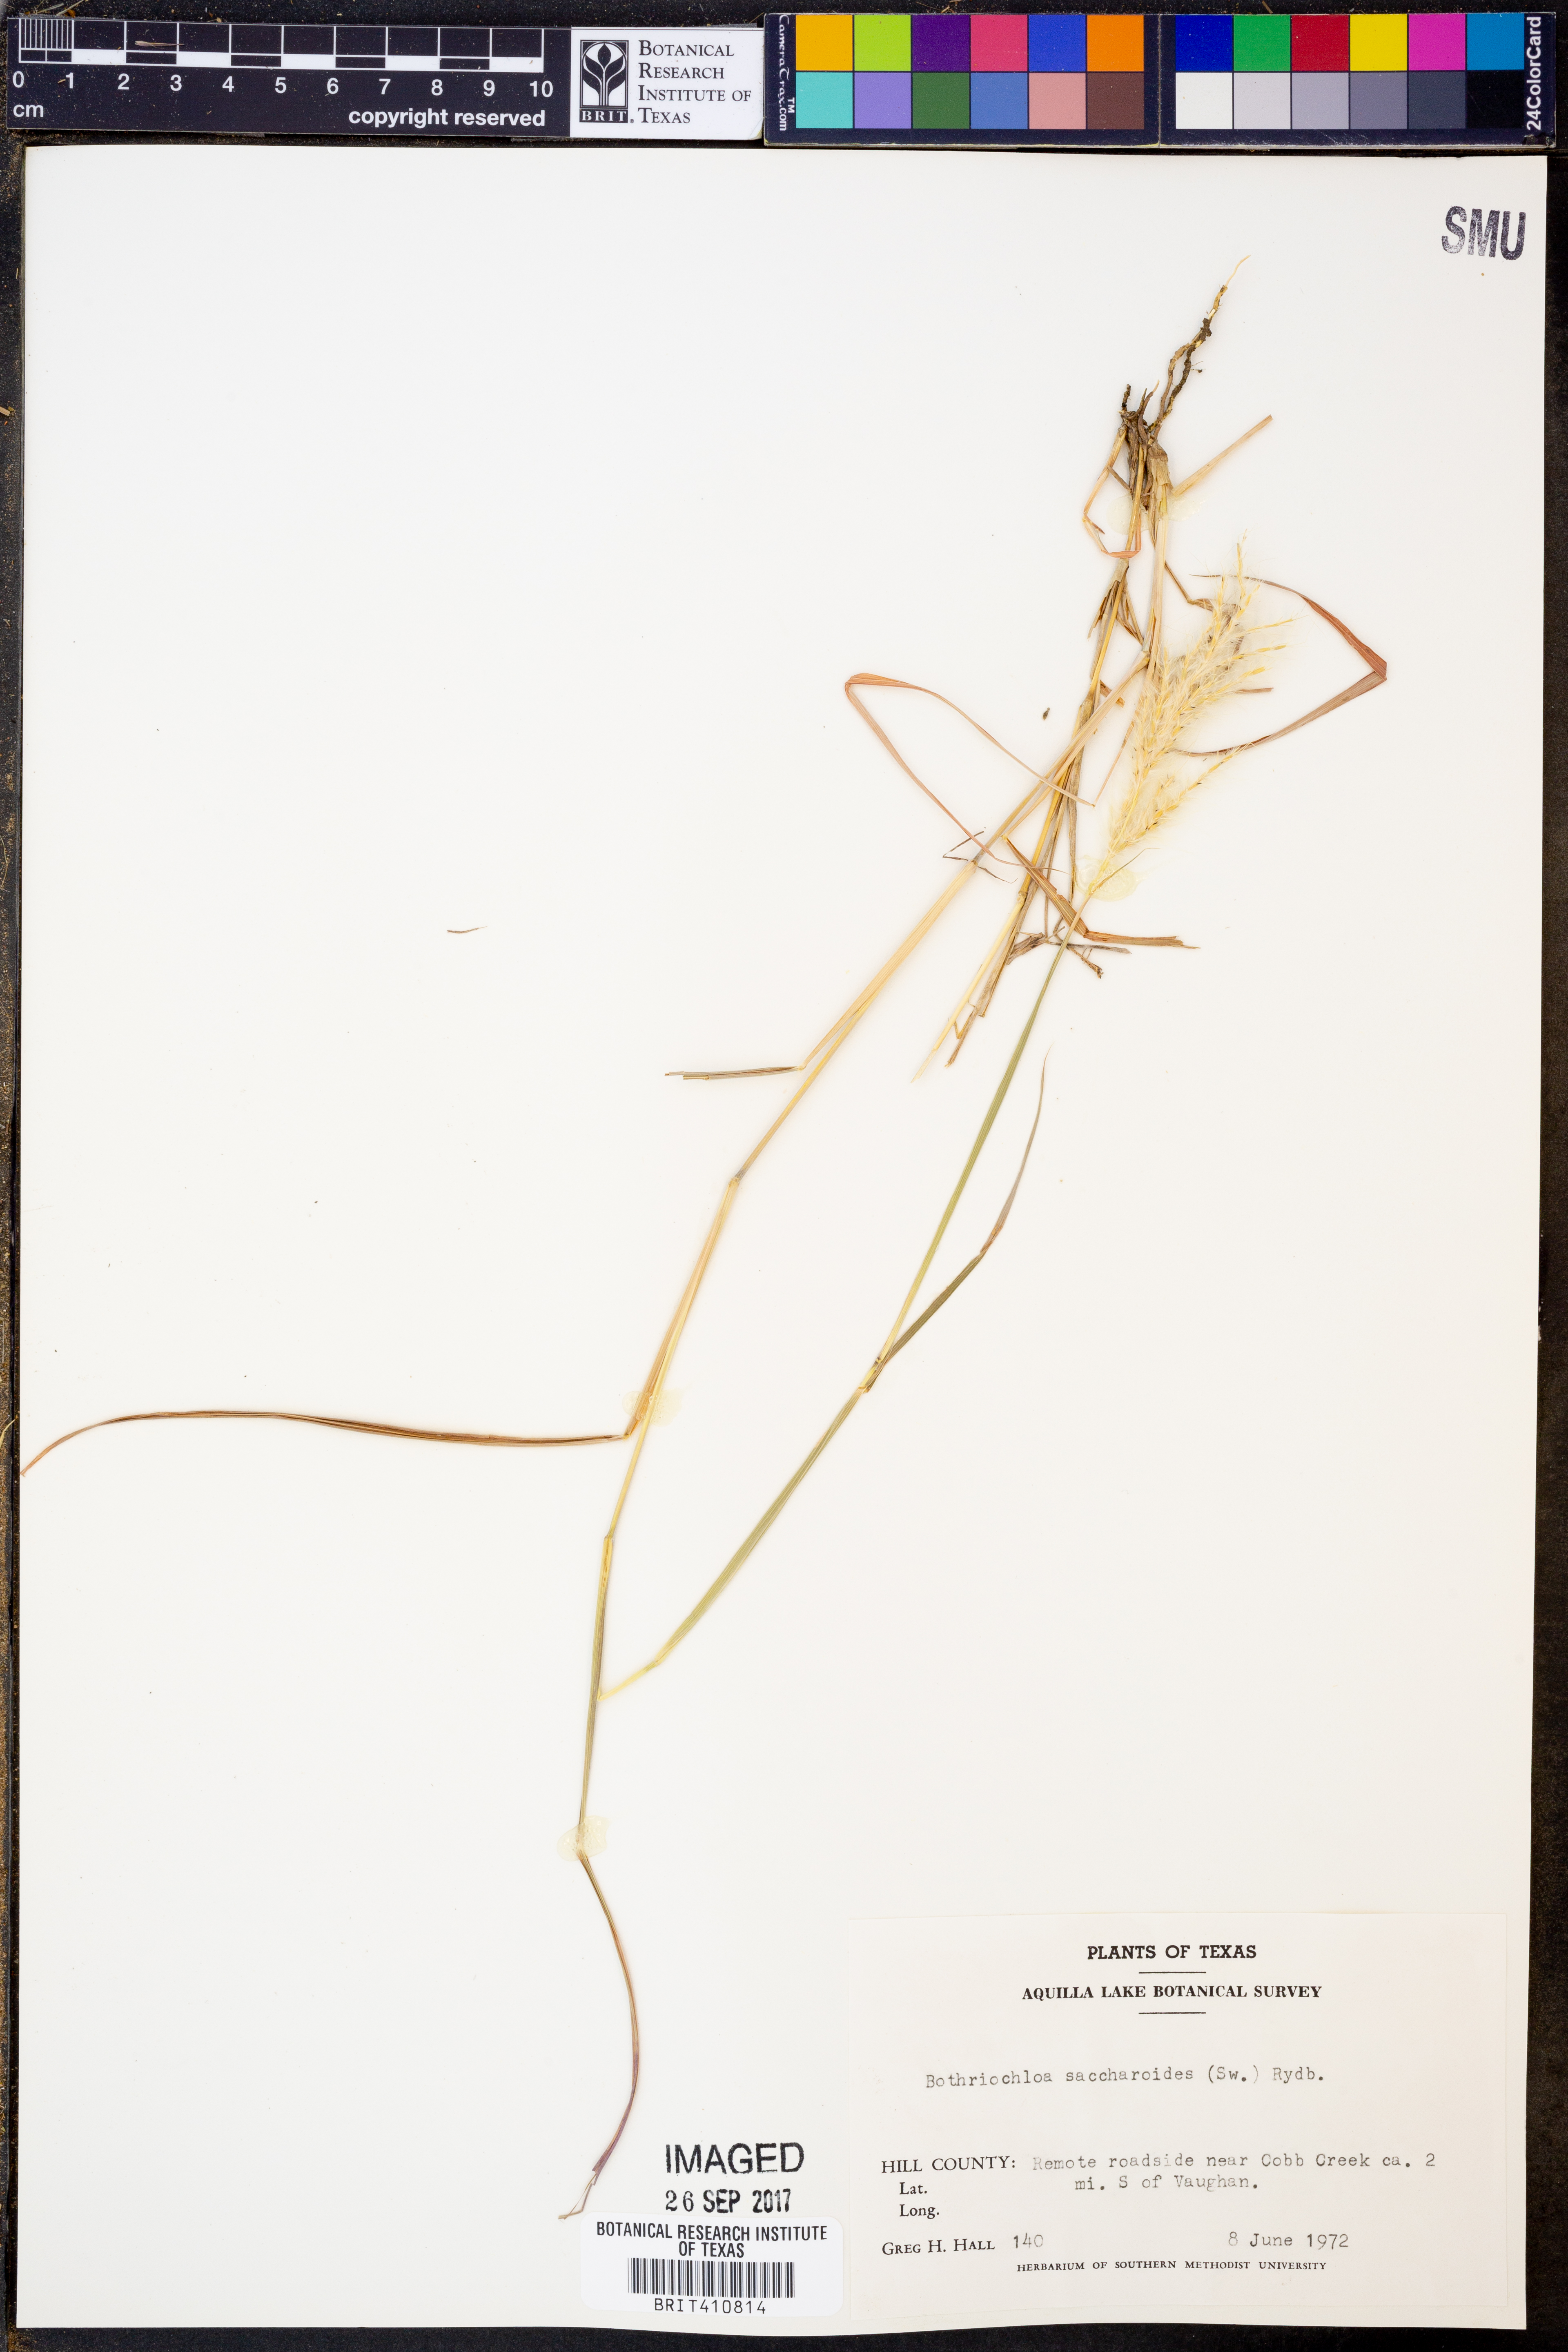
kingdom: Plantae
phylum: Tracheophyta
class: Liliopsida
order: Poales
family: Poaceae
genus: Bothriochloa
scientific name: Bothriochloa saccharoides
